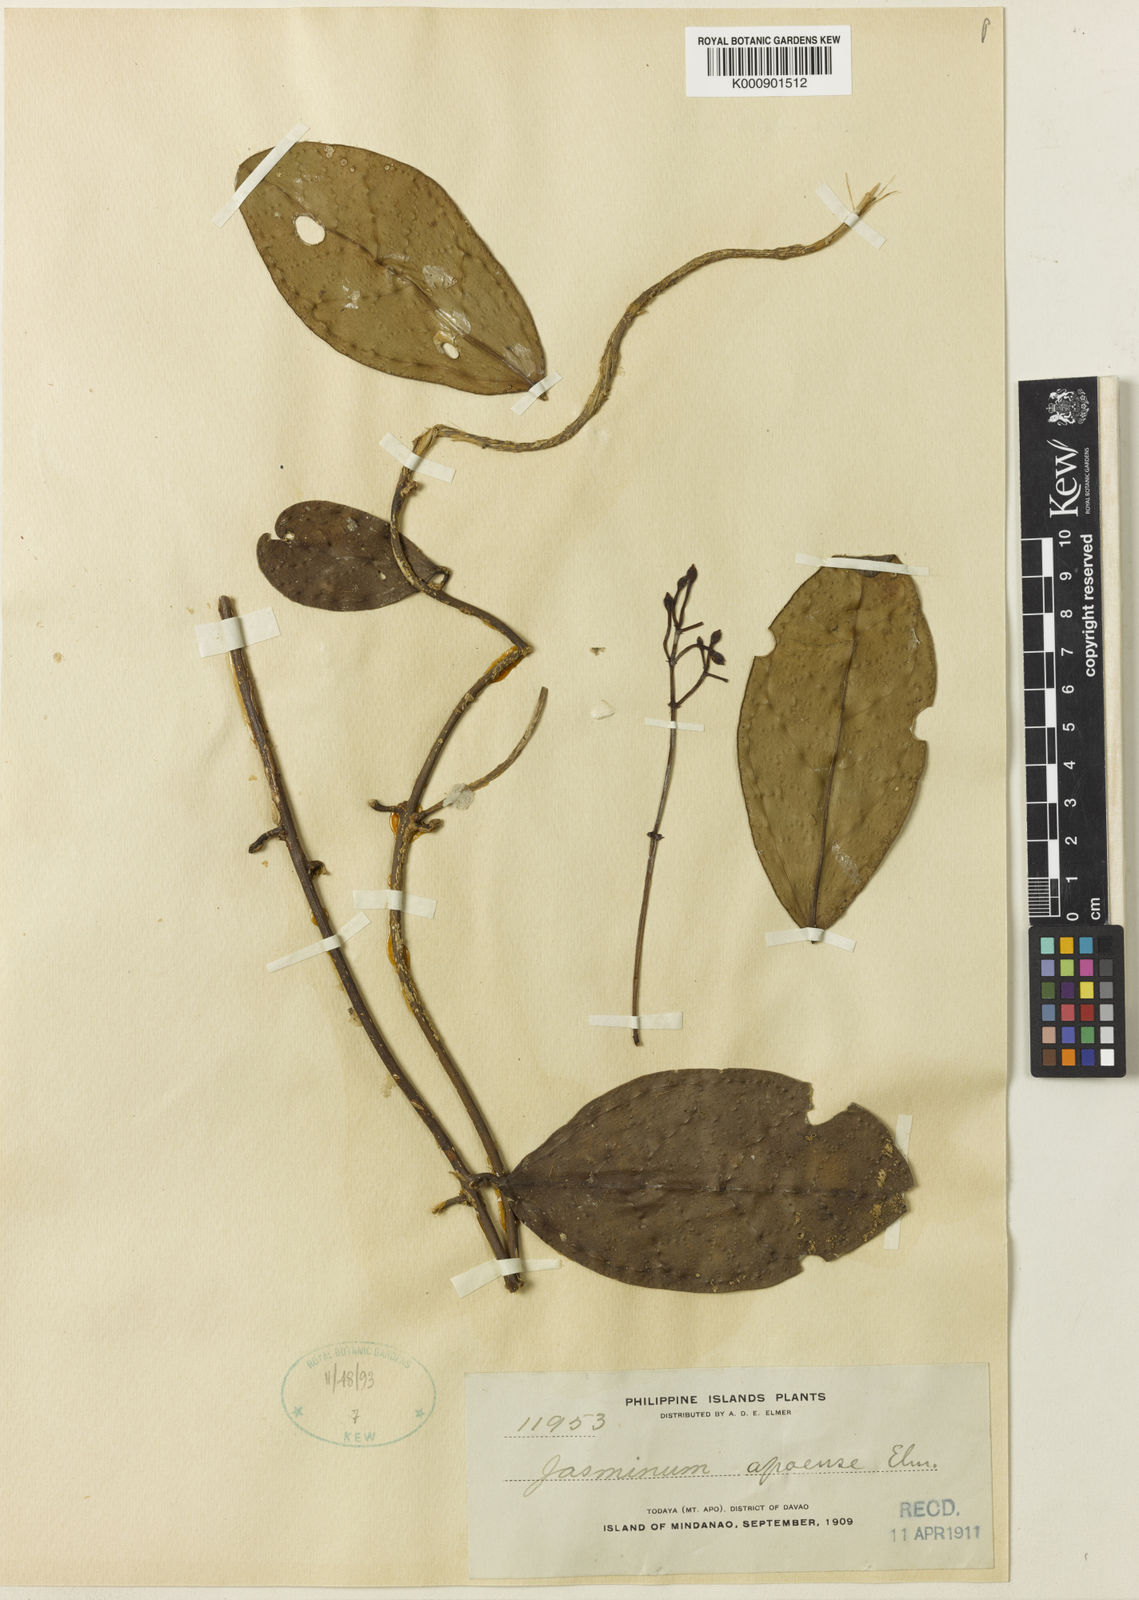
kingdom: Plantae
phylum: Tracheophyta
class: Magnoliopsida
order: Lamiales
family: Oleaceae
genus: Jasminum
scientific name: Jasminum apoense
